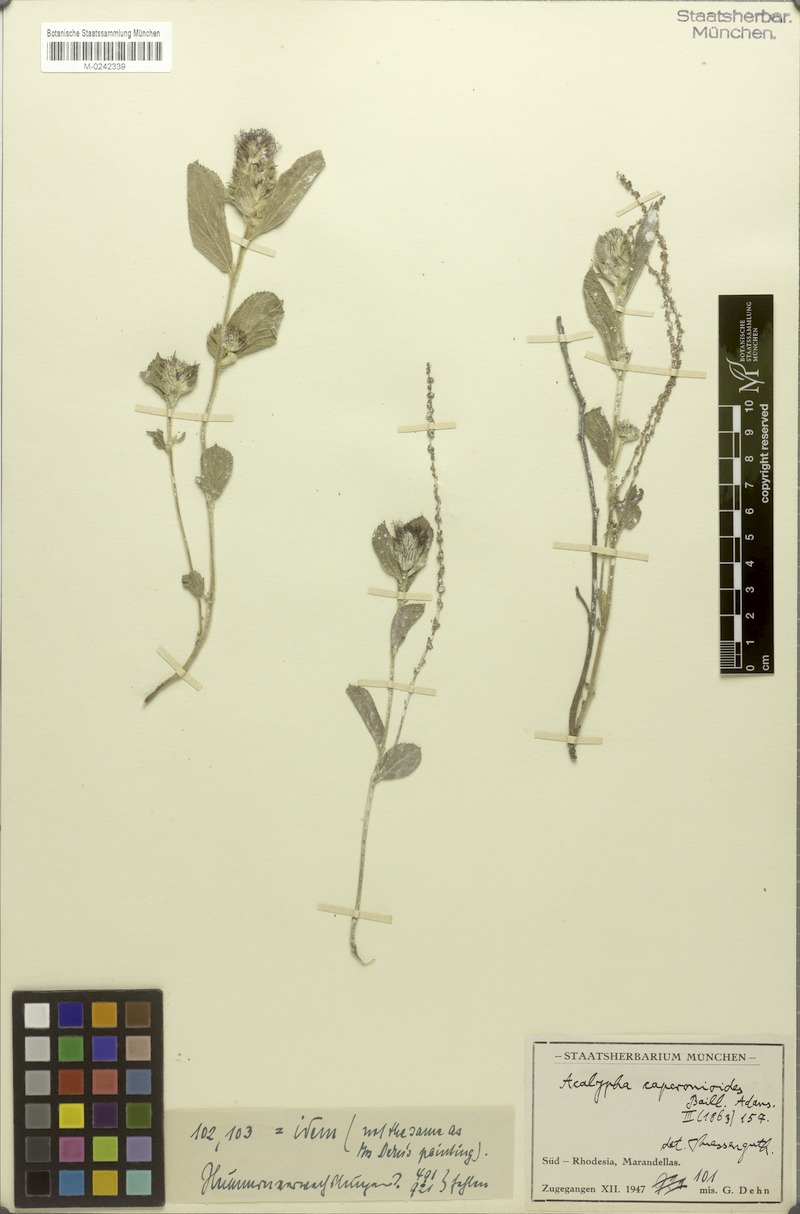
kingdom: Plantae
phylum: Tracheophyta
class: Magnoliopsida
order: Malpighiales
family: Euphorbiaceae
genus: Acalypha
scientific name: Acalypha caperonioides
